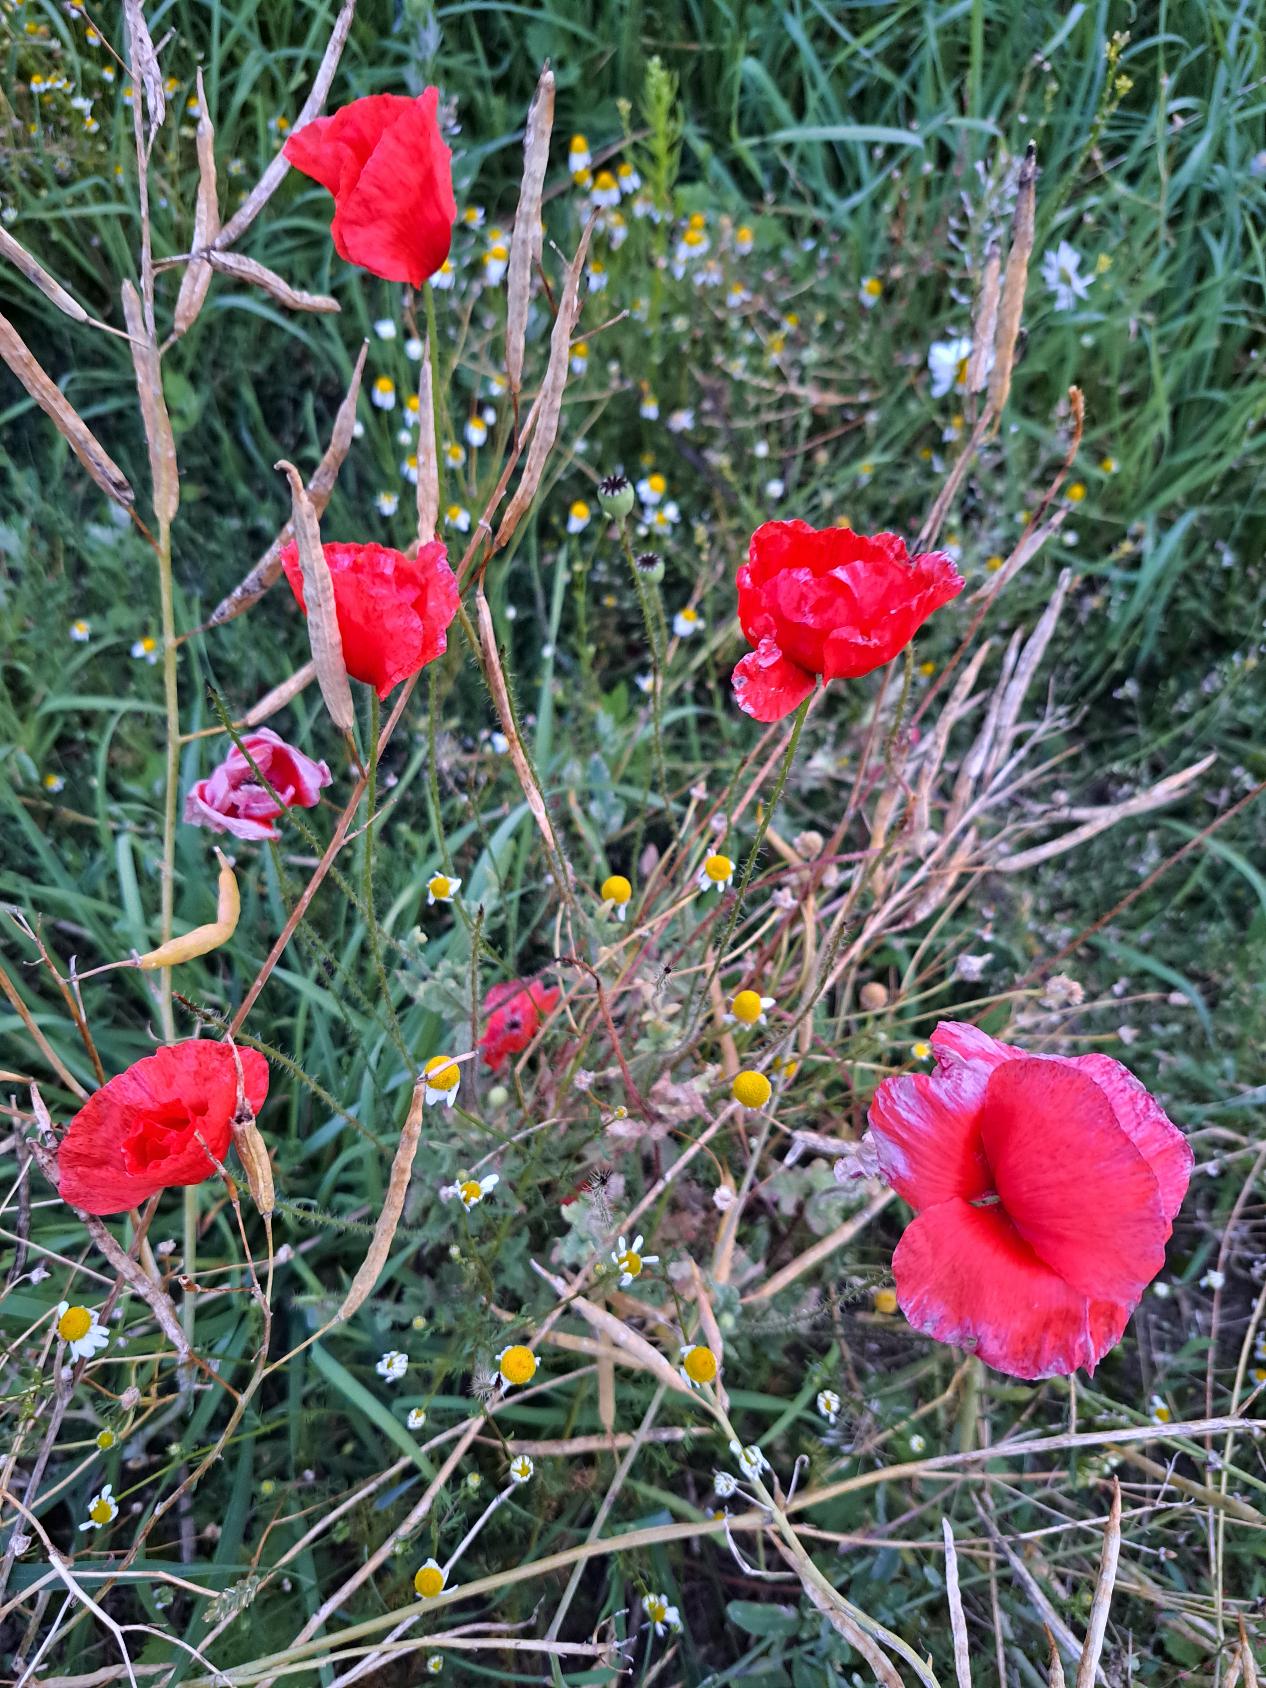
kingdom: Plantae
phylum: Tracheophyta
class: Magnoliopsida
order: Ranunculales
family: Papaveraceae
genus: Papaver
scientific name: Papaver rhoeas
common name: Korn-valmue
